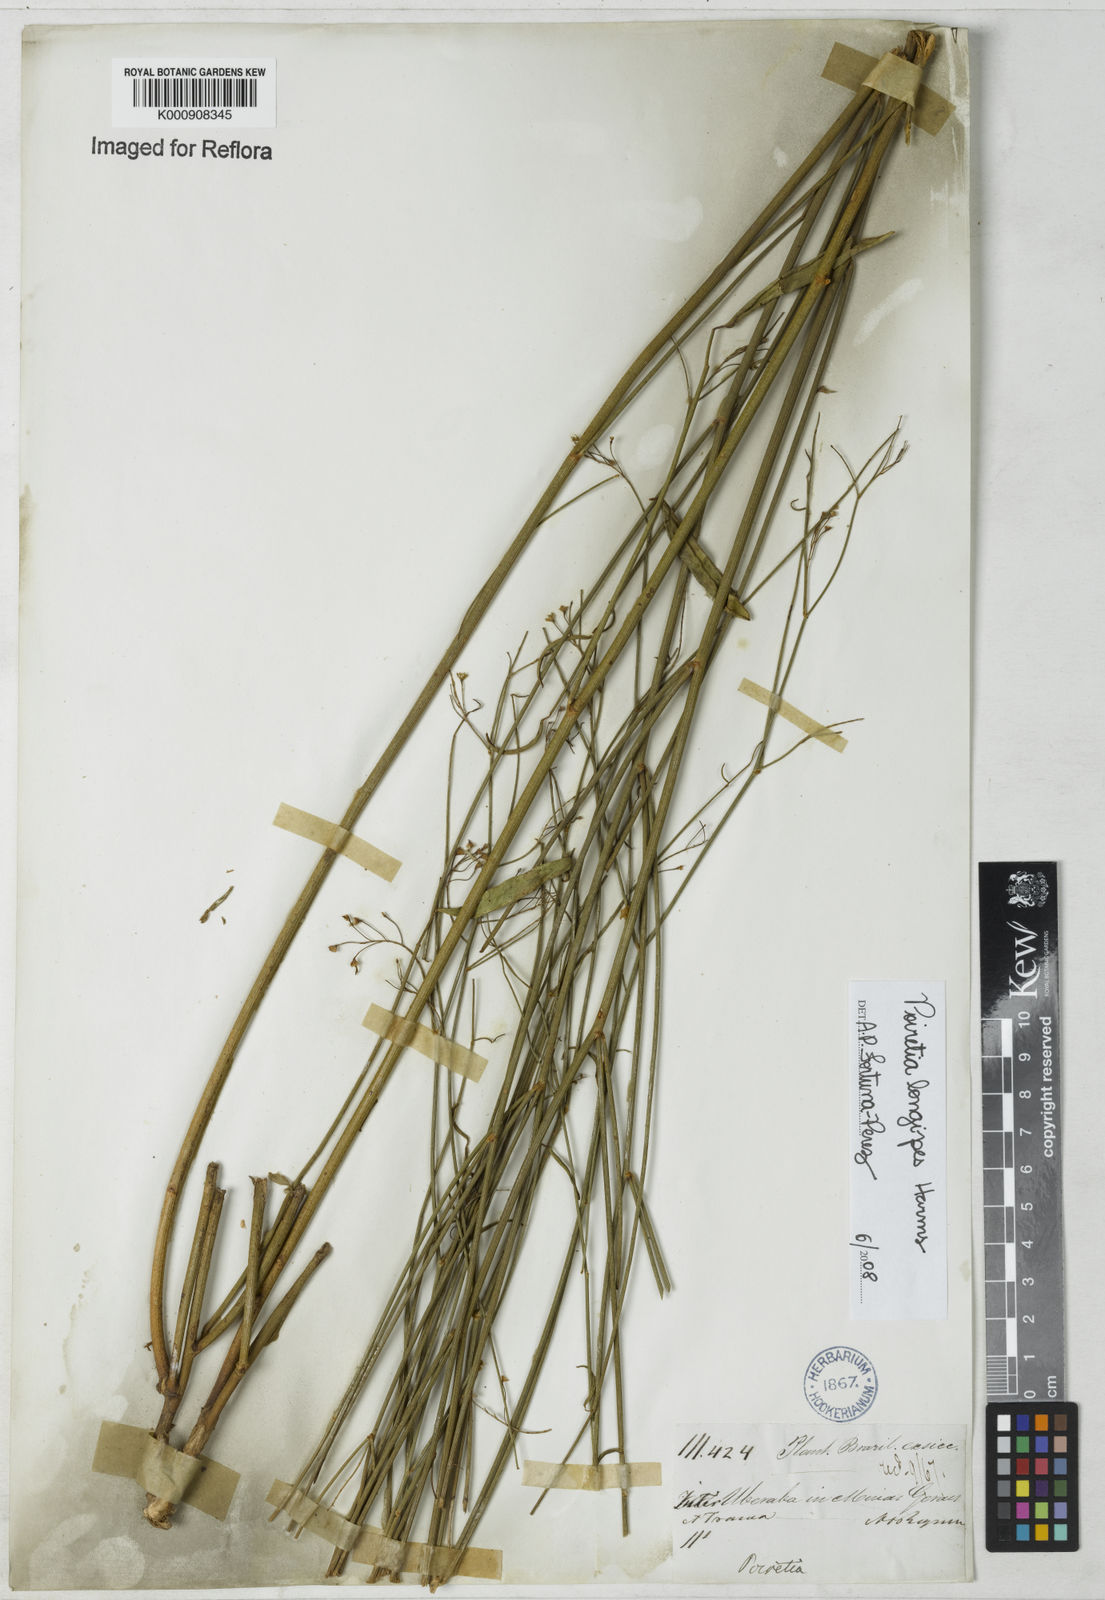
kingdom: Plantae
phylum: Tracheophyta
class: Magnoliopsida
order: Fabales
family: Fabaceae
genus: Poiretia
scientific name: Poiretia longipes
